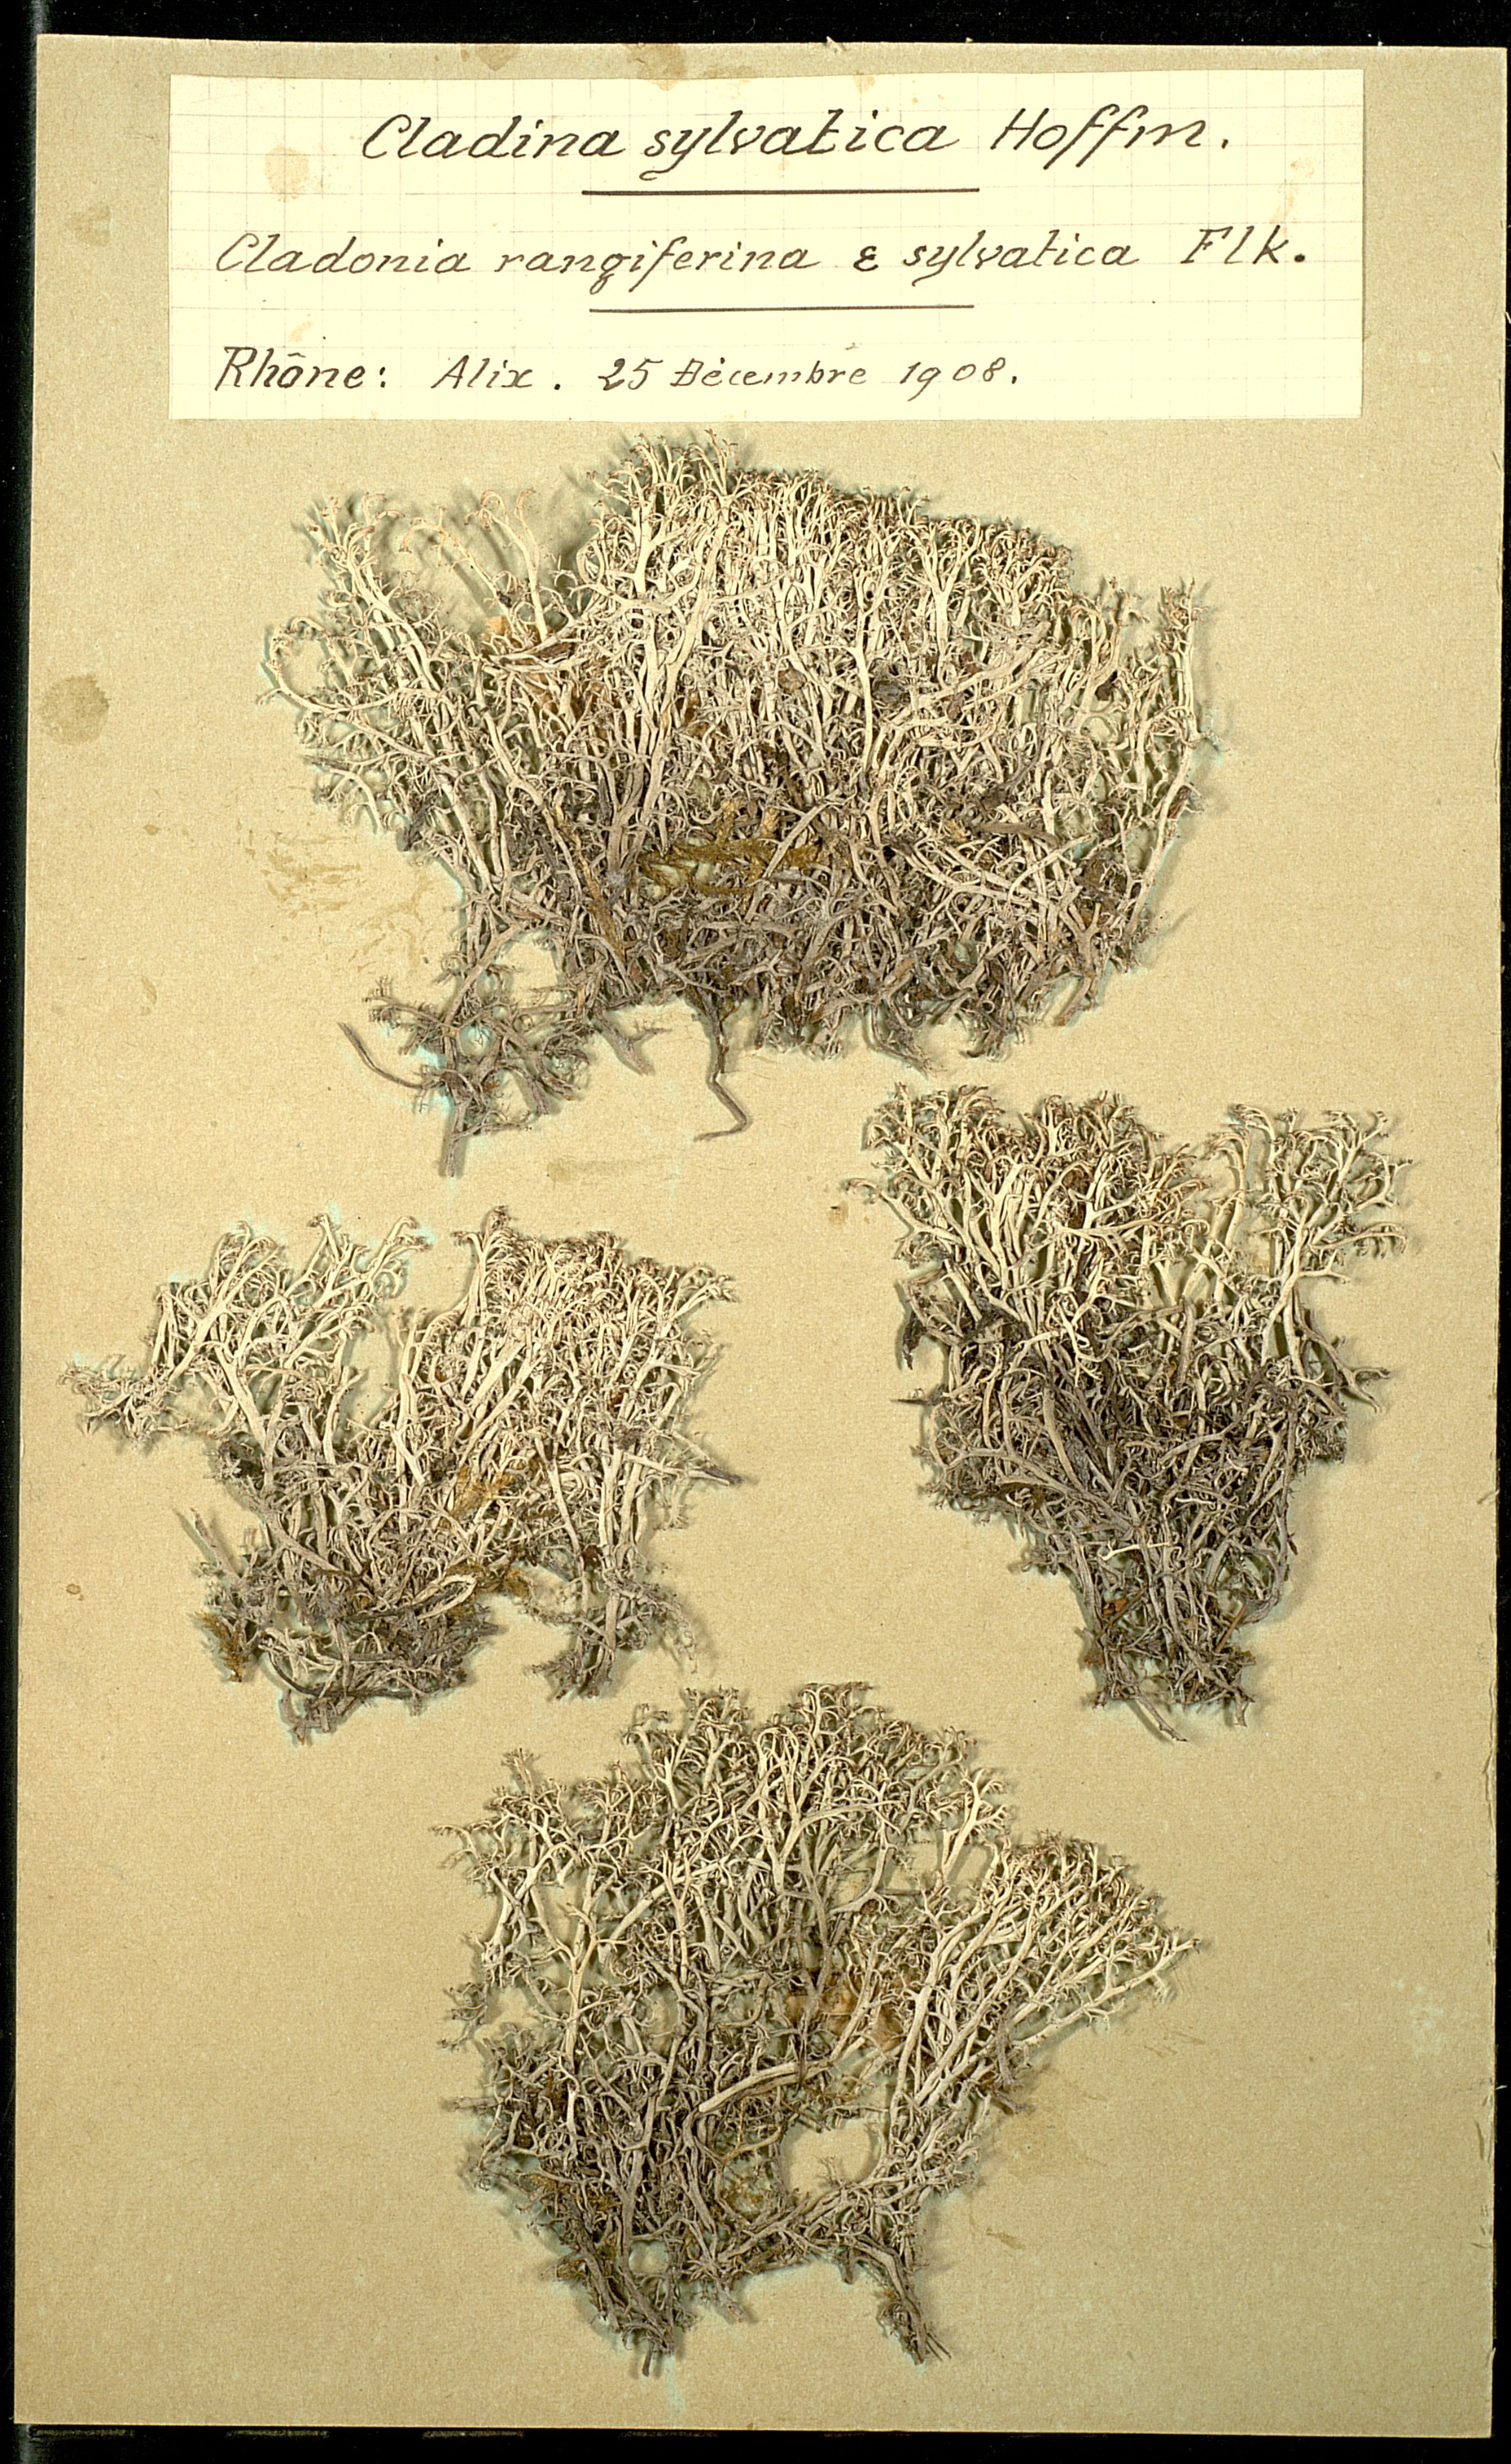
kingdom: Fungi
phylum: Ascomycota
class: Lecanoromycetes
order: Lecanorales
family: Cladoniaceae
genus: Cladonia
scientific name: Cladonia arbuscula
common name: Reindeer lichen
